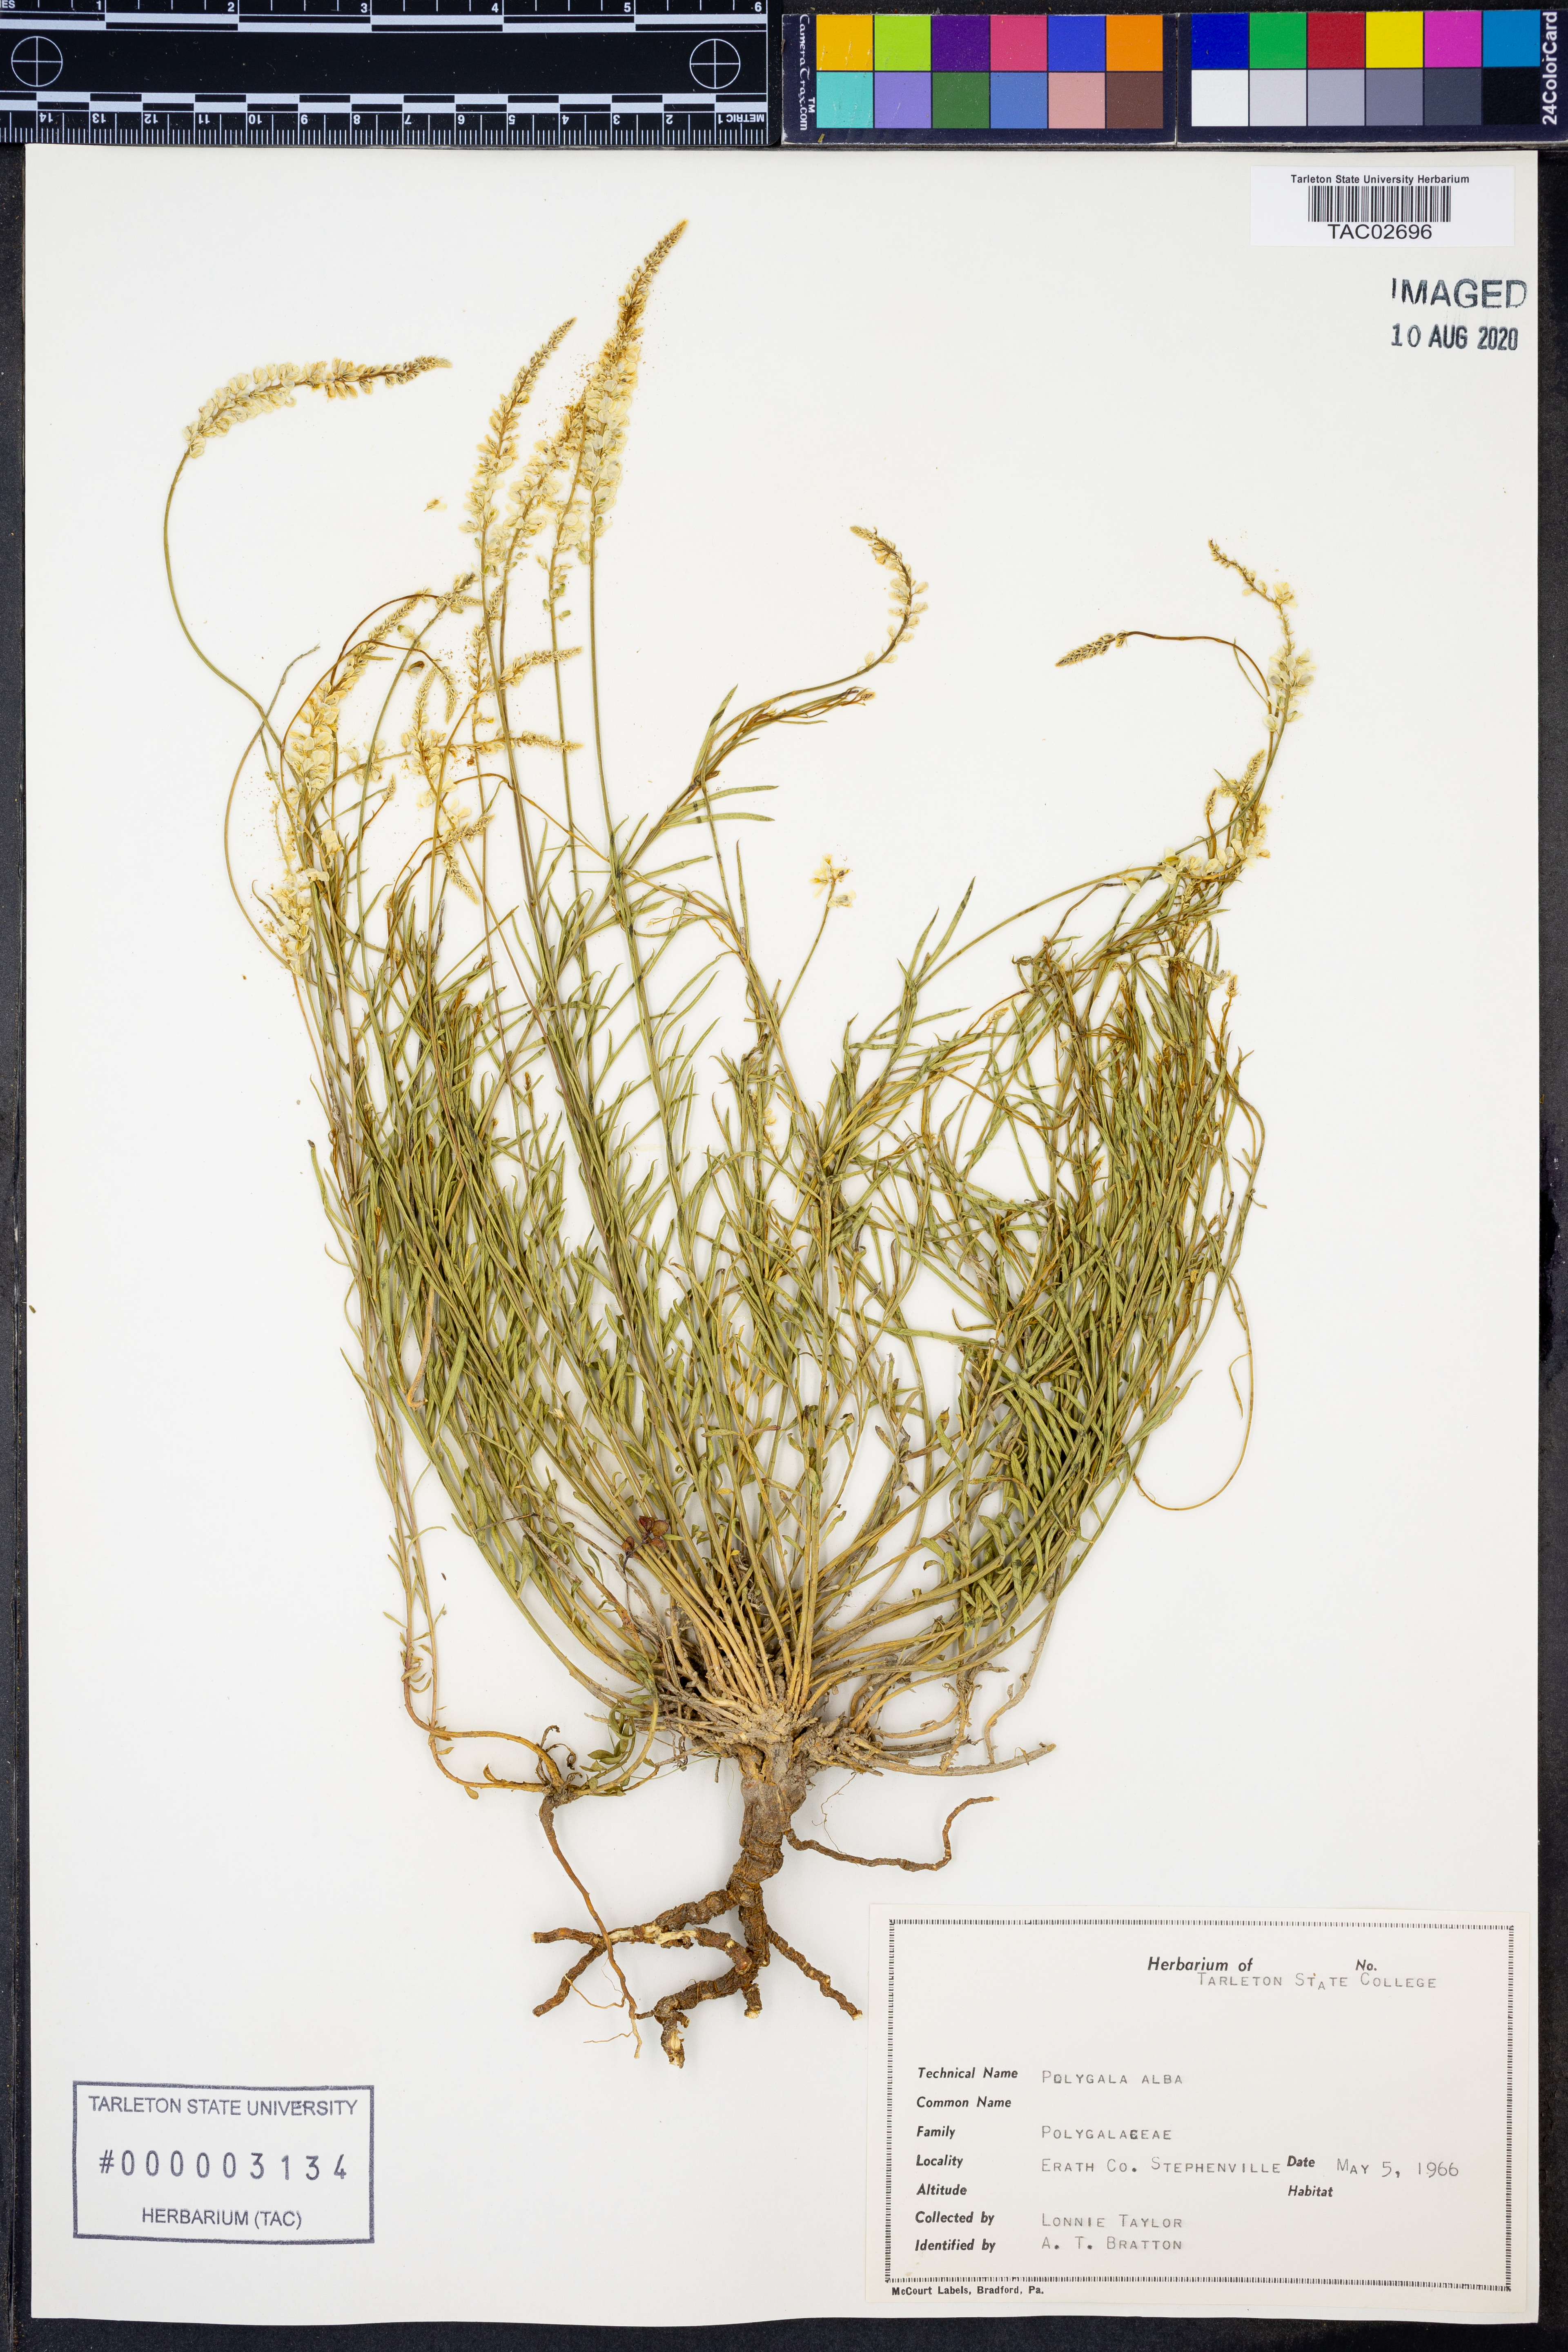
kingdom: Plantae
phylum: Tracheophyta
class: Magnoliopsida
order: Fabales
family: Polygalaceae
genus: Polygala
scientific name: Polygala alba
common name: White milkwort
